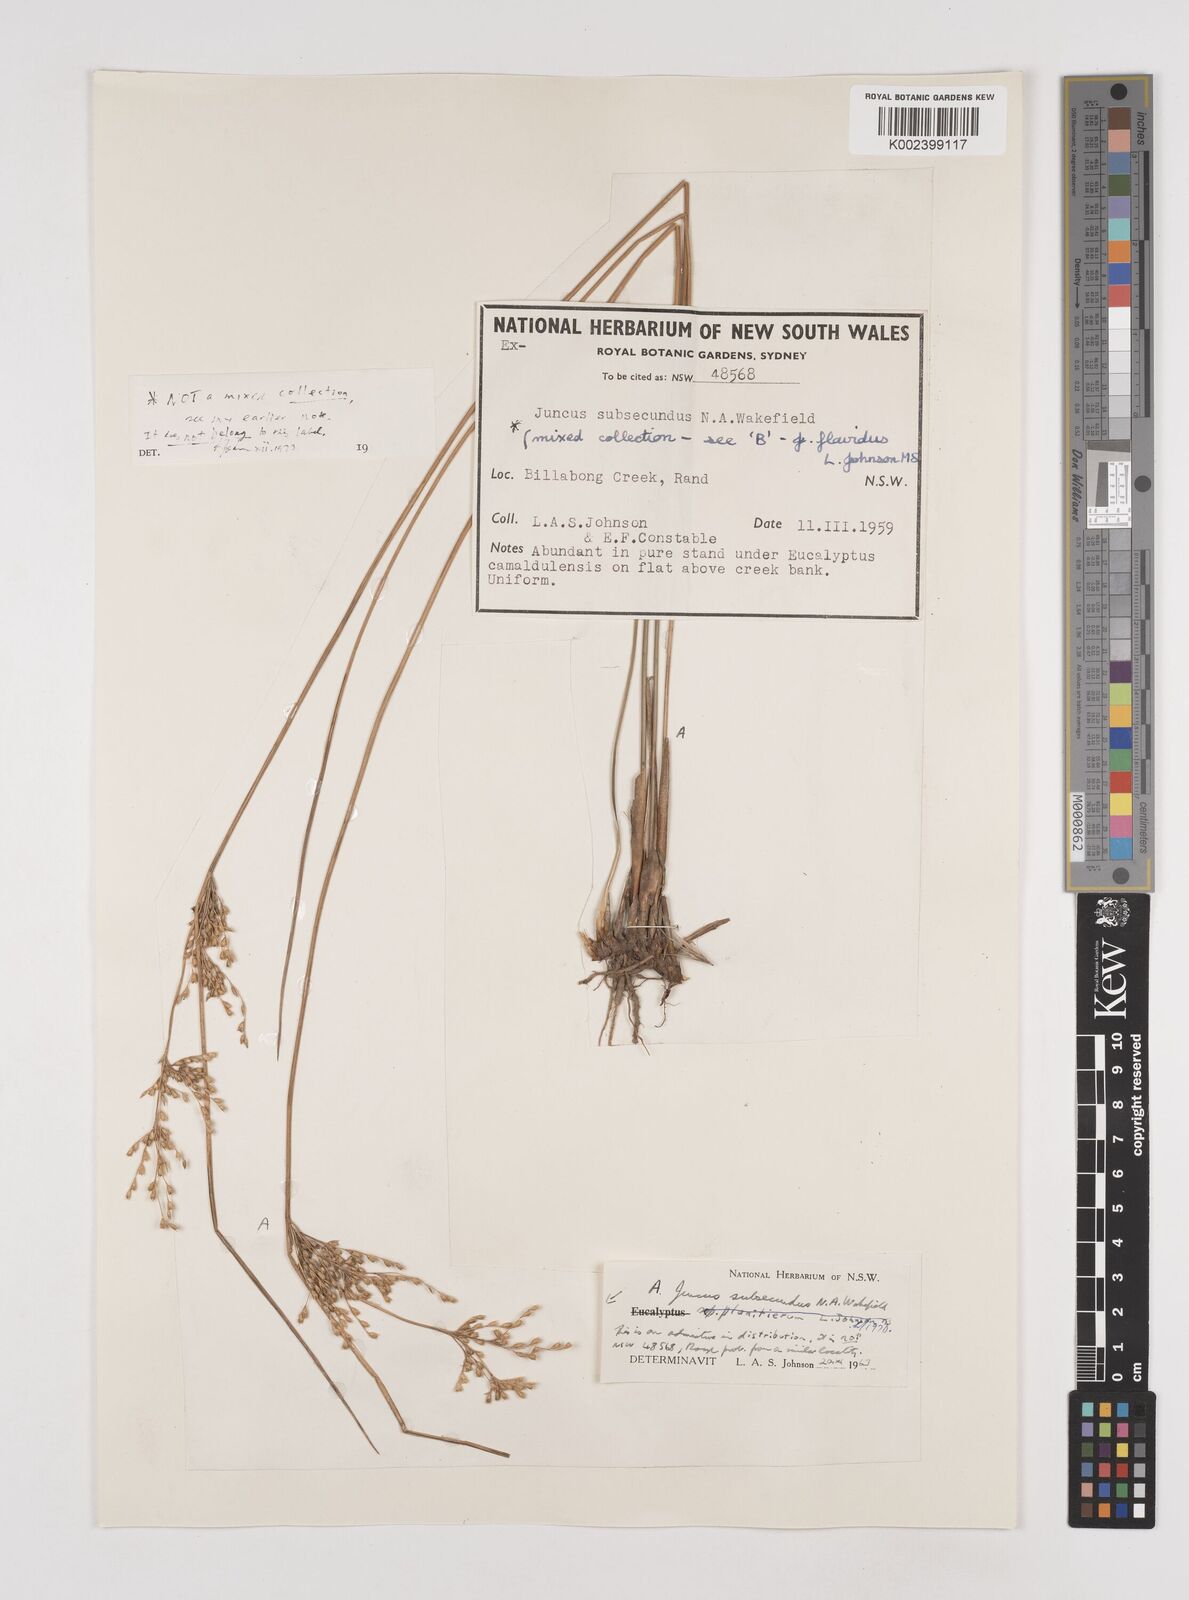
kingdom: Plantae
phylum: Tracheophyta
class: Liliopsida
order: Poales
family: Juncaceae
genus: Juncus
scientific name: Juncus subsecundus
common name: Fingered rush
